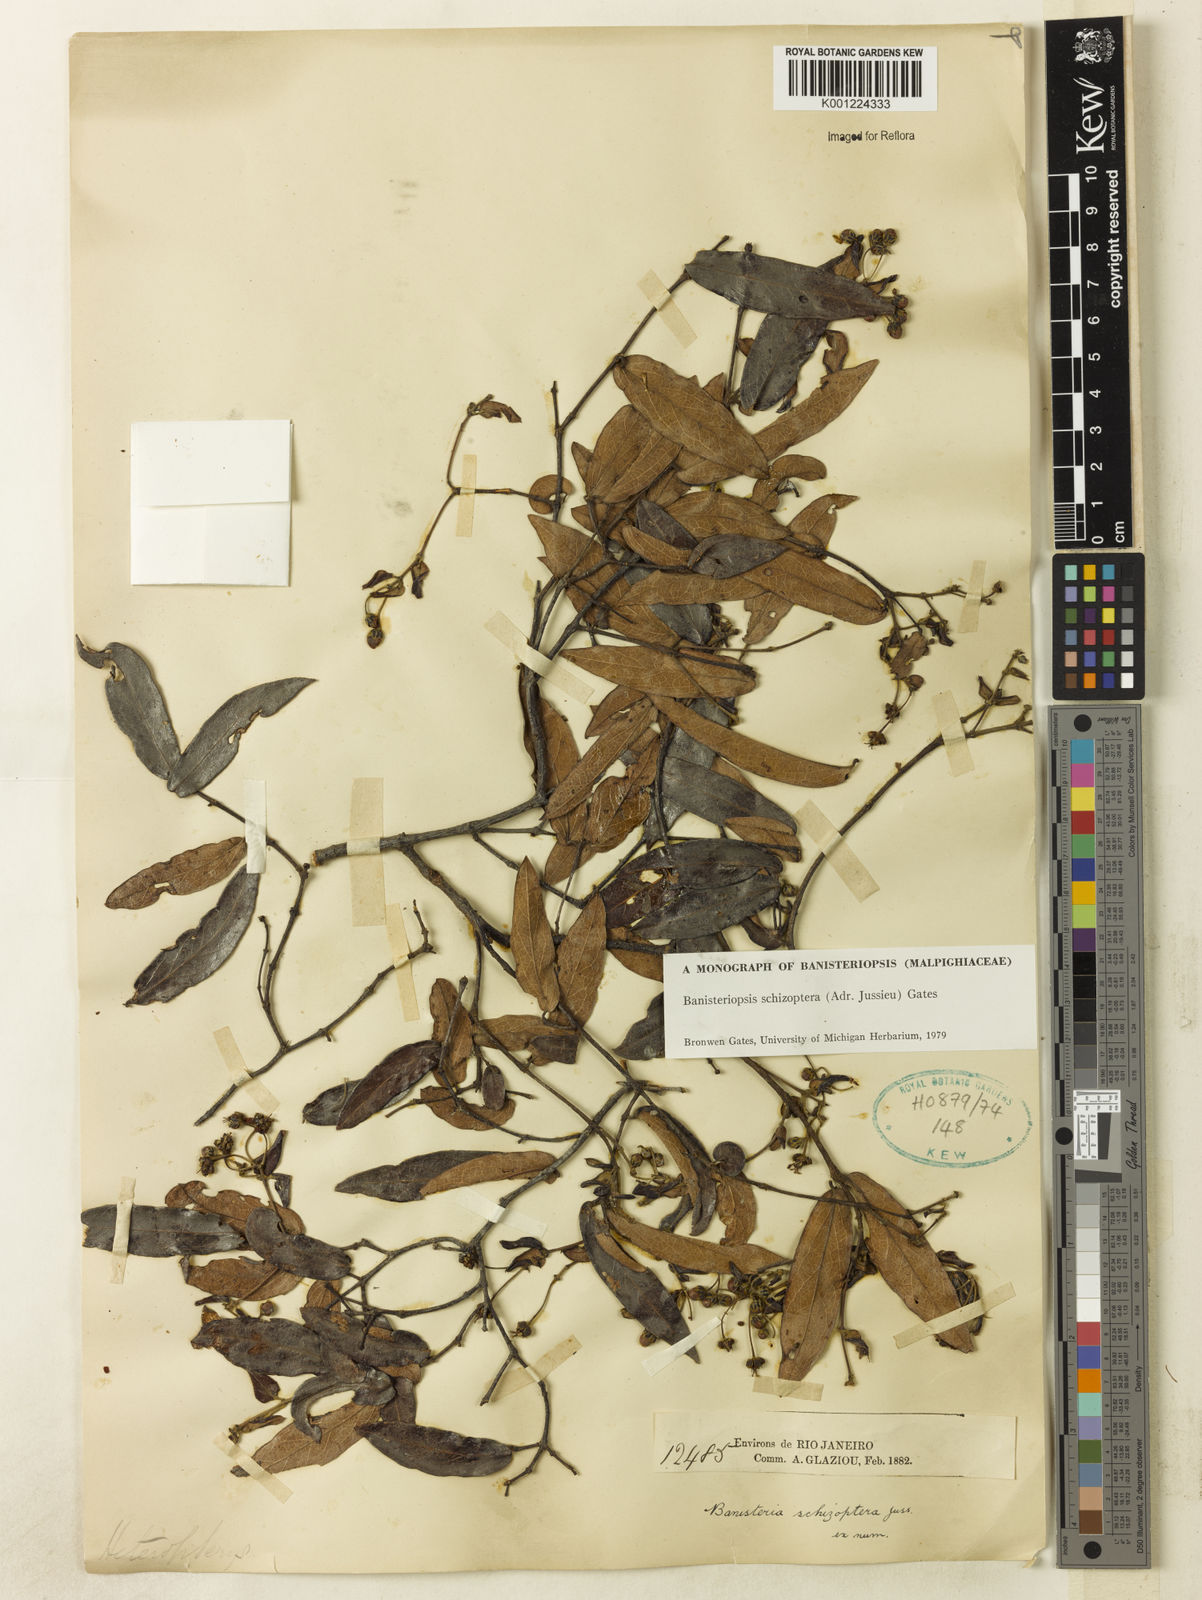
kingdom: Plantae
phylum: Tracheophyta
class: Magnoliopsida
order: Malpighiales
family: Malpighiaceae
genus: Banisteriopsis
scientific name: Banisteriopsis schizoptera
